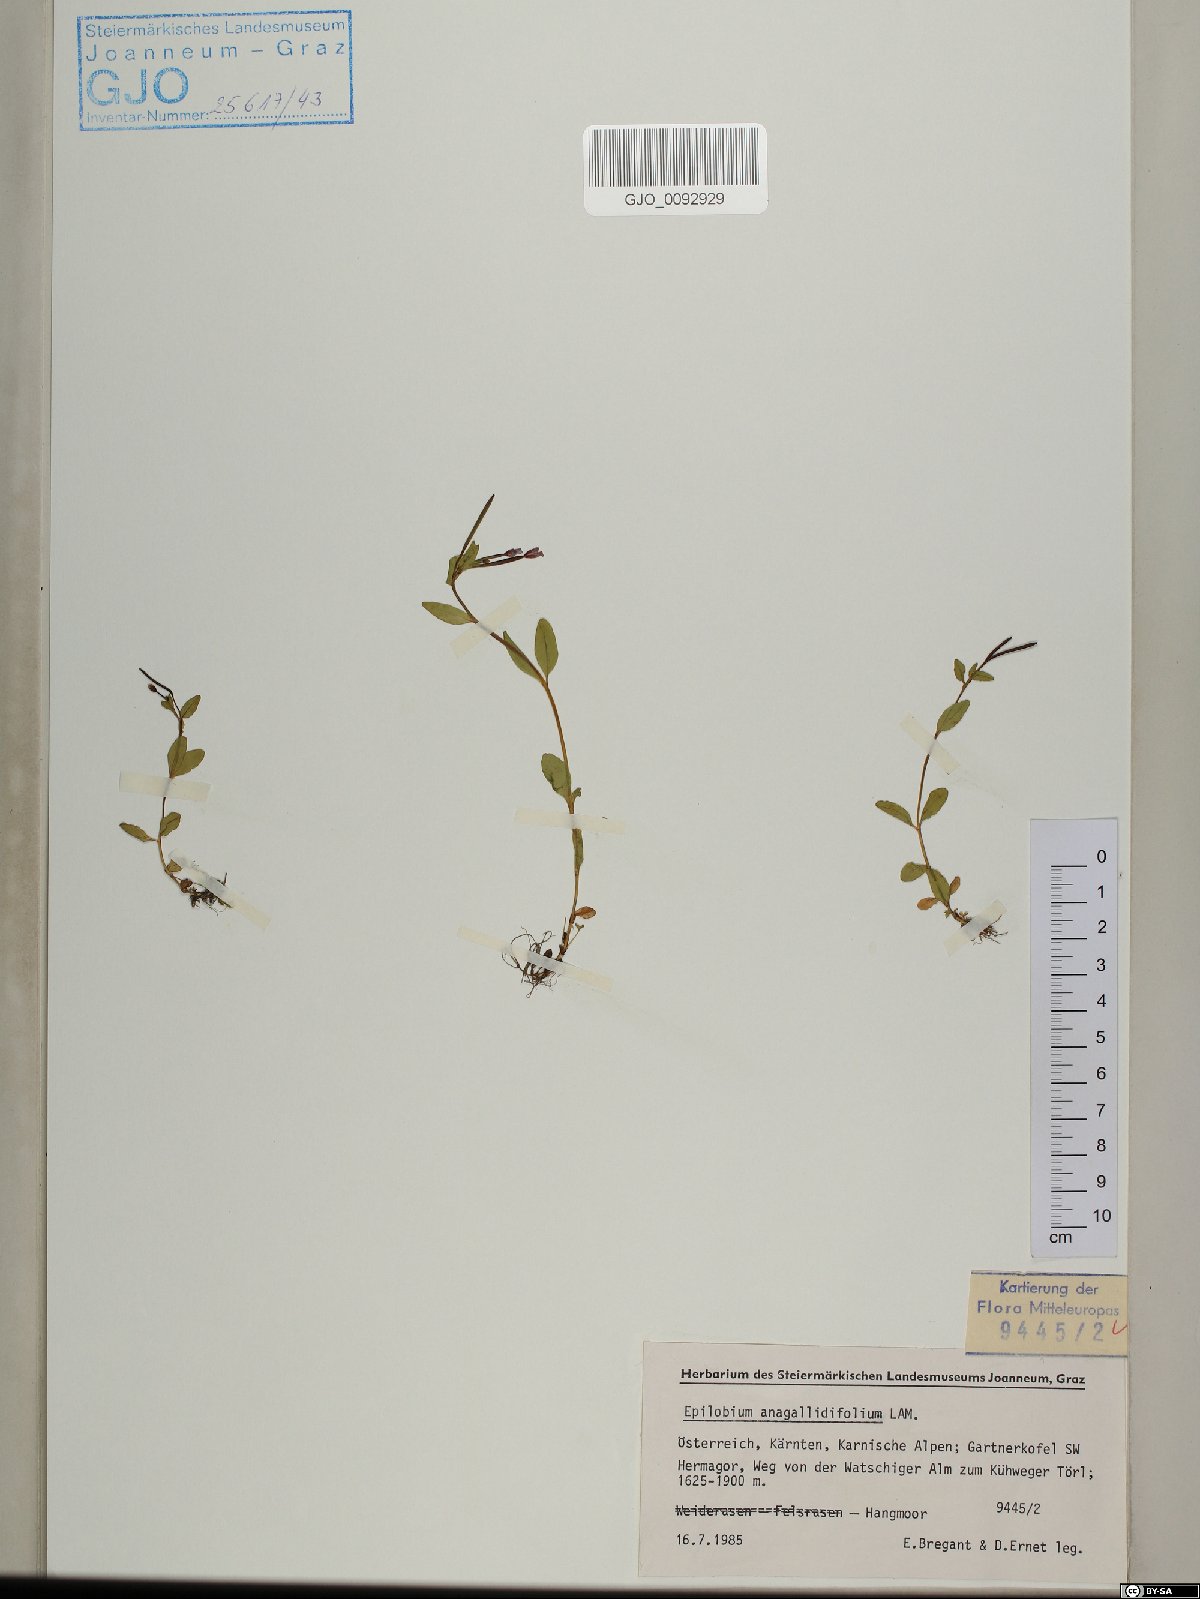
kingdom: Plantae
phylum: Tracheophyta
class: Magnoliopsida
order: Myrtales
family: Onagraceae
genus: Epilobium
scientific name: Epilobium anagallidifolium
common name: Alpine willowherb
